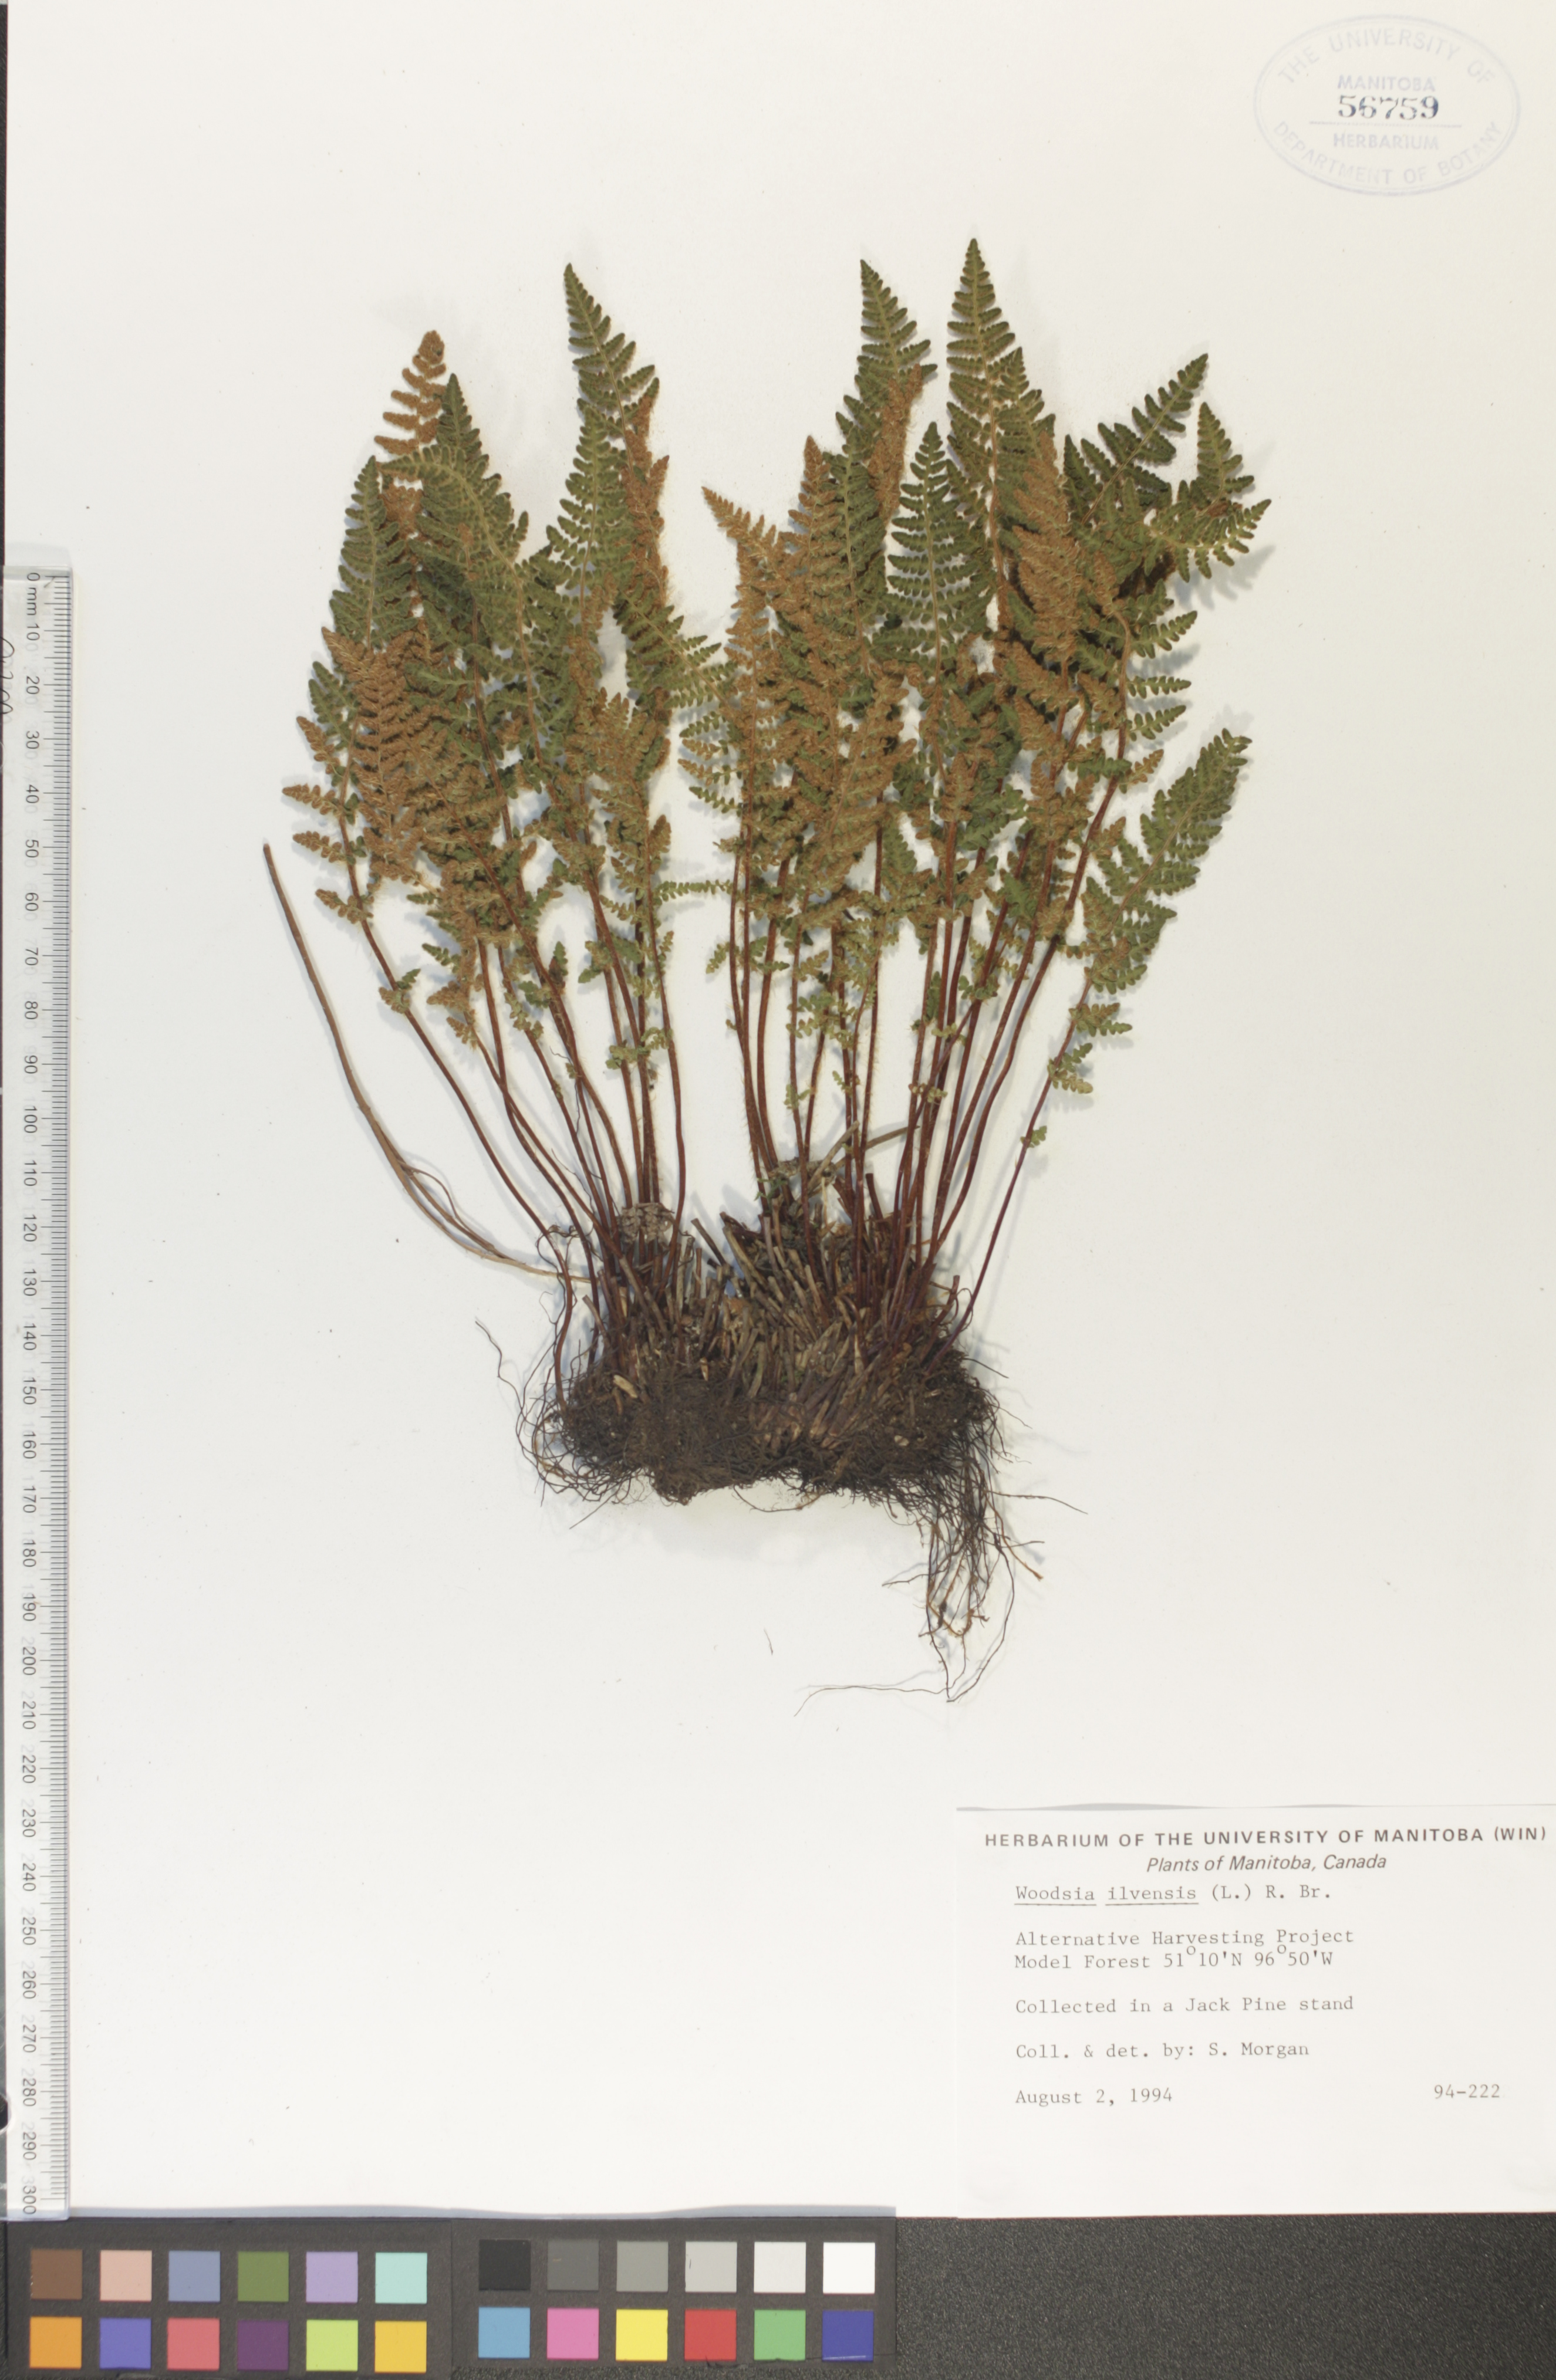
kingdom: Plantae
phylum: Tracheophyta
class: Polypodiopsida
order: Polypodiales
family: Woodsiaceae
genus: Woodsia
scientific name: Woodsia ilvensis
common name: Fragrant woodsia
